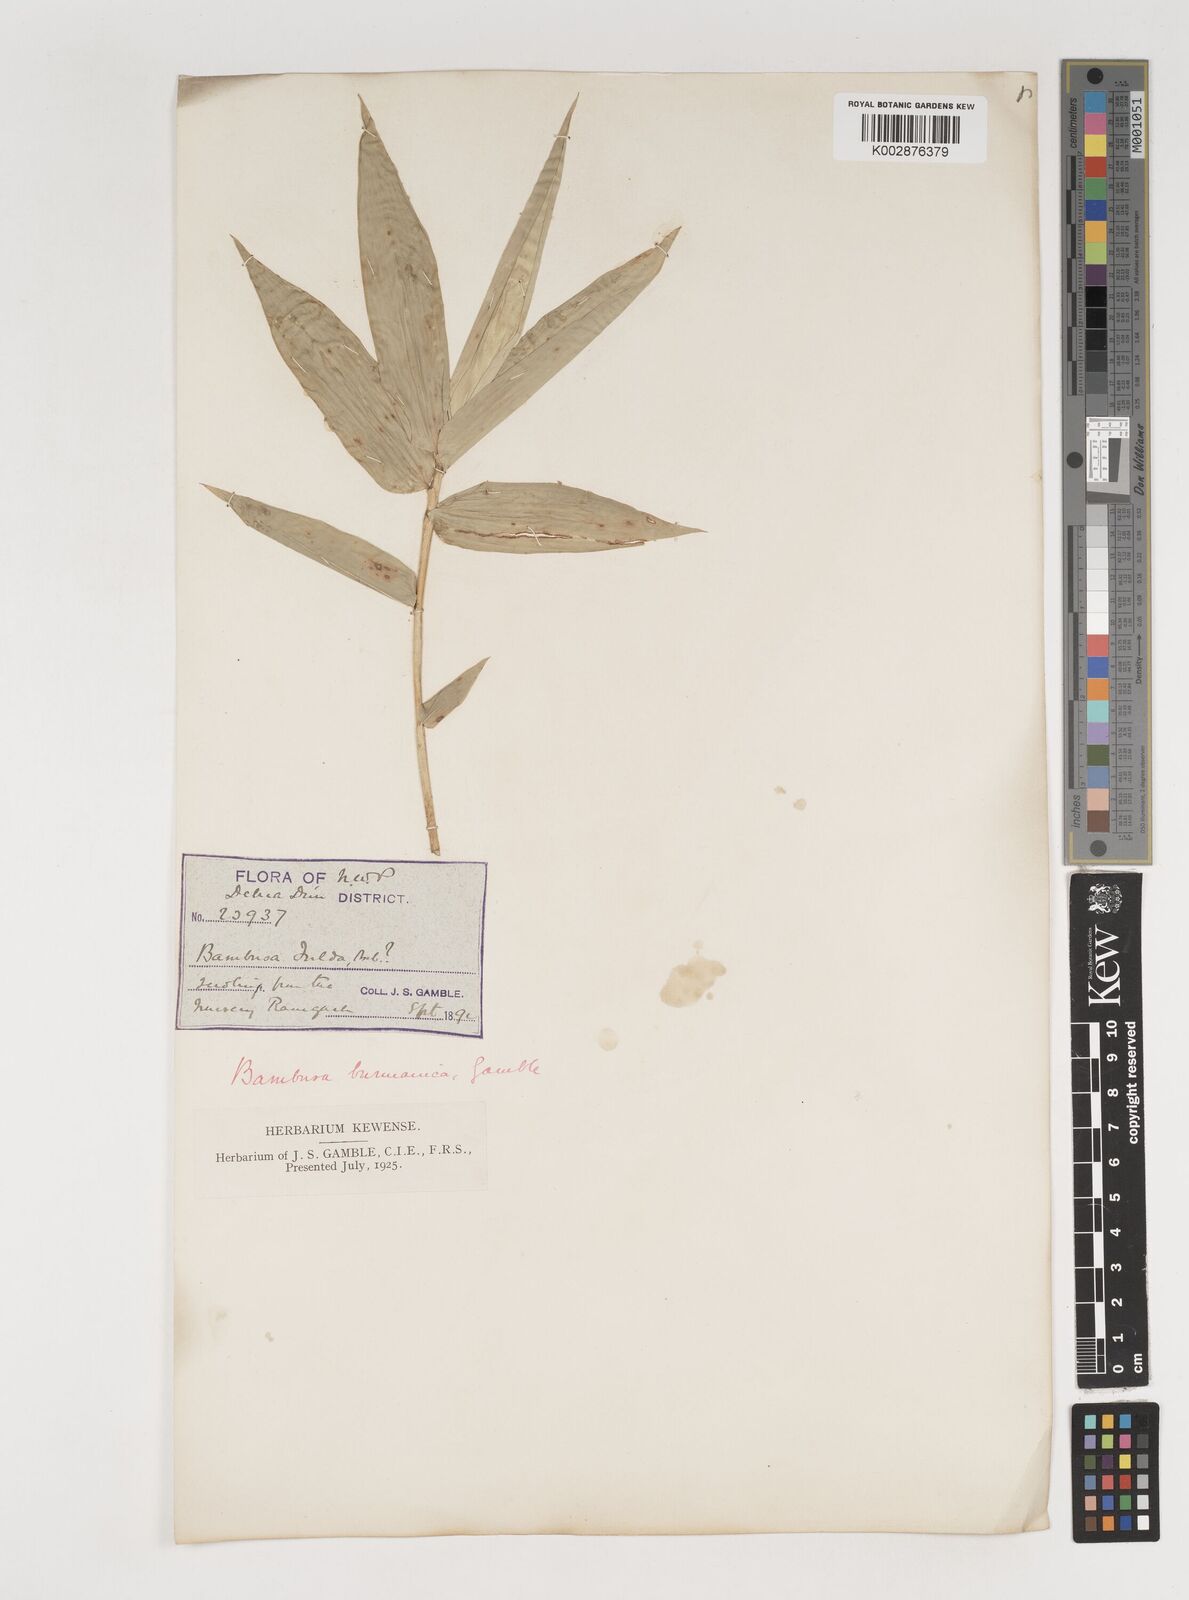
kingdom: Plantae
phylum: Tracheophyta
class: Liliopsida
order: Poales
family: Poaceae
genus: Bambusa
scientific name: Bambusa burmanica
